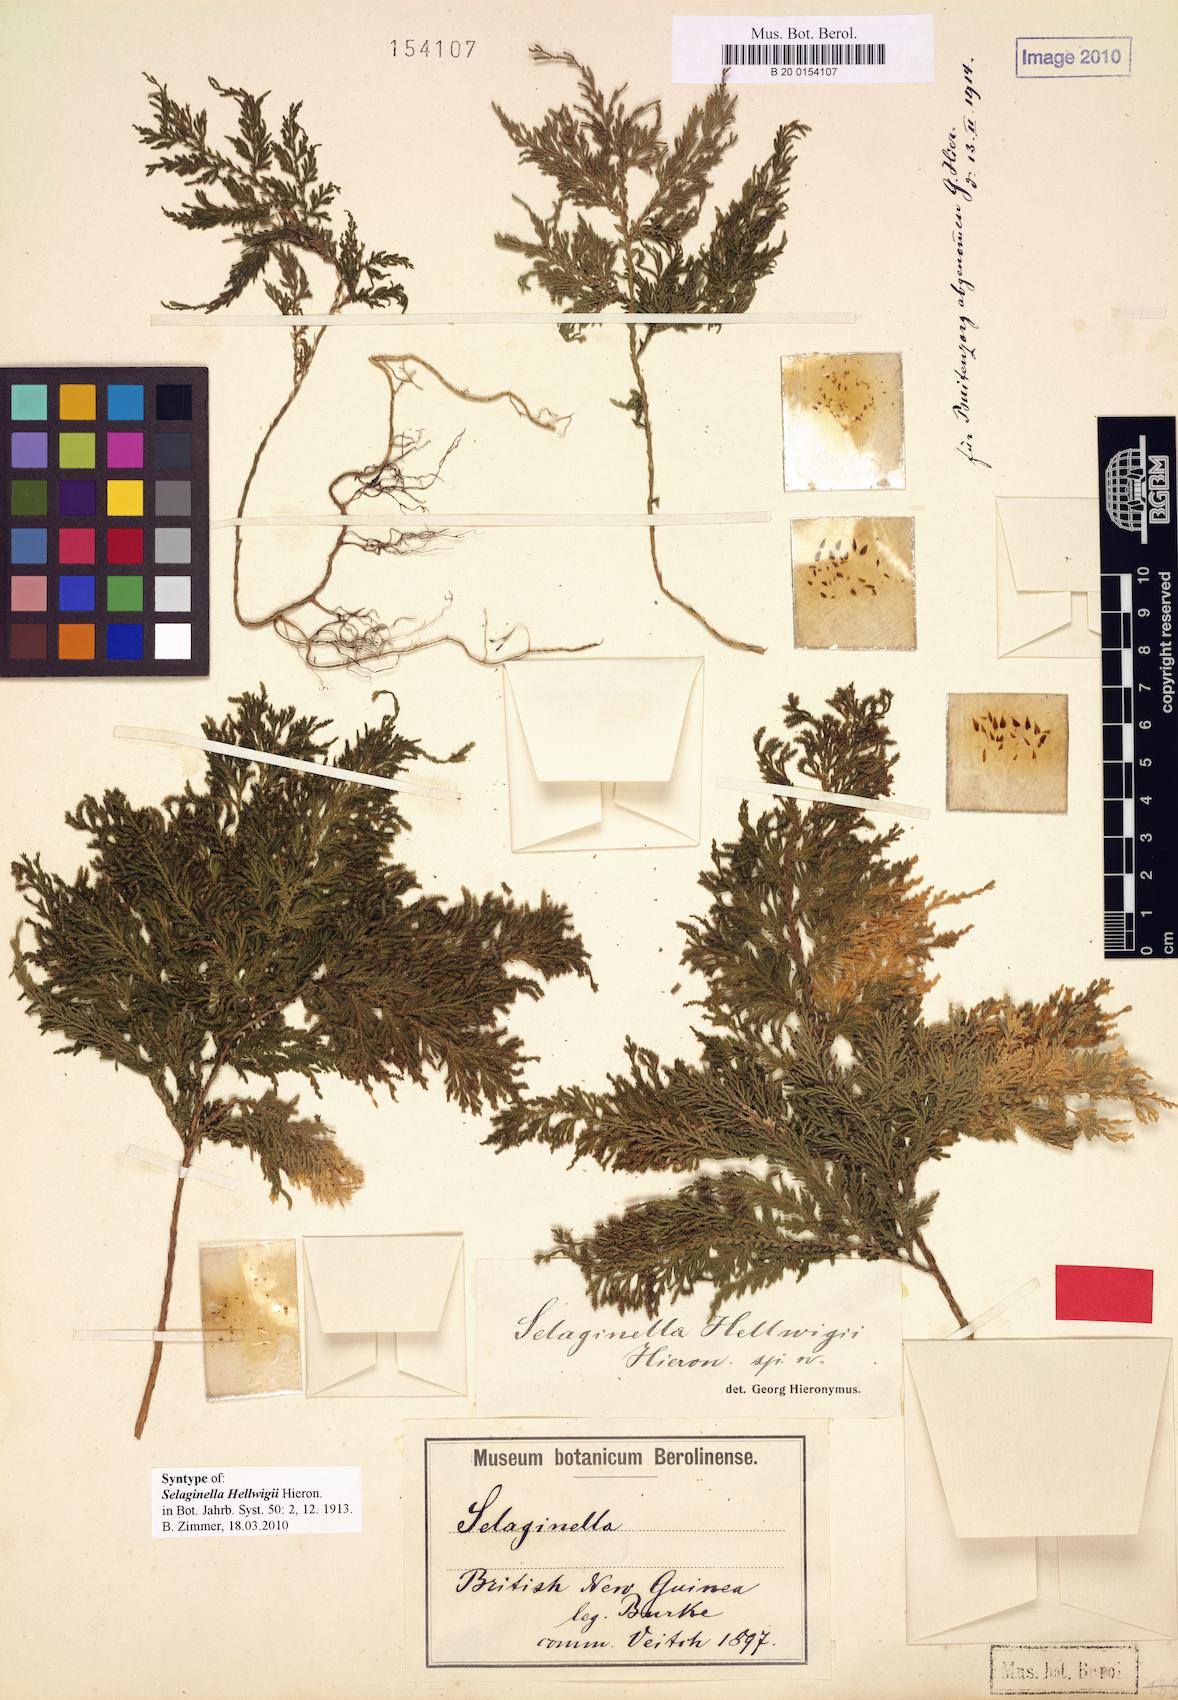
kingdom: Plantae
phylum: Tracheophyta
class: Lycopodiopsida
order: Selaginellales
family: Selaginellaceae
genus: Selaginella
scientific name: Selaginella hellwigii
